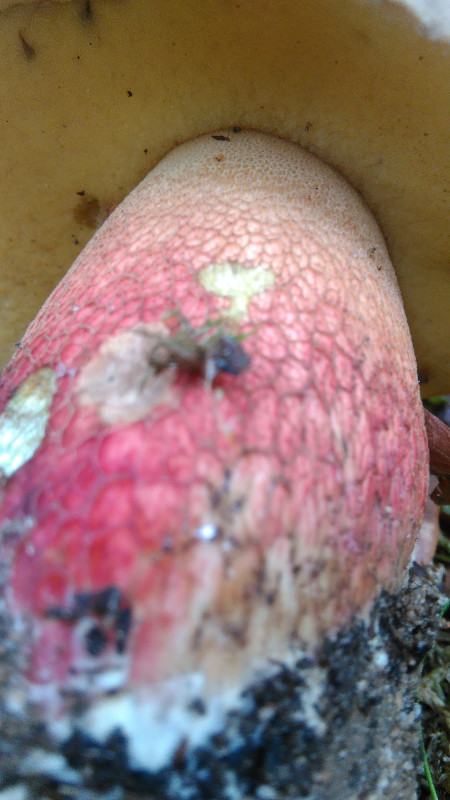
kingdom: Fungi
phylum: Basidiomycota
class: Agaricomycetes
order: Boletales
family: Boletaceae
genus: Caloboletus
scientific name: Caloboletus calopus
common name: skønfodet rørhat
